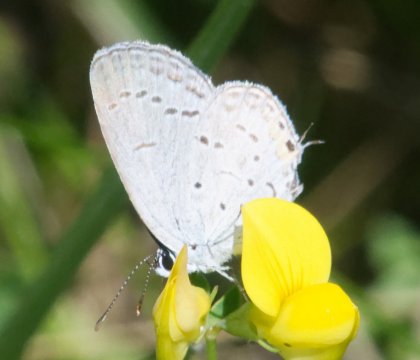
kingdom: Animalia
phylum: Arthropoda
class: Insecta
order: Lepidoptera
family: Lycaenidae
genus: Elkalyce
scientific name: Elkalyce comyntas
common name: Eastern Tailed-Blue
